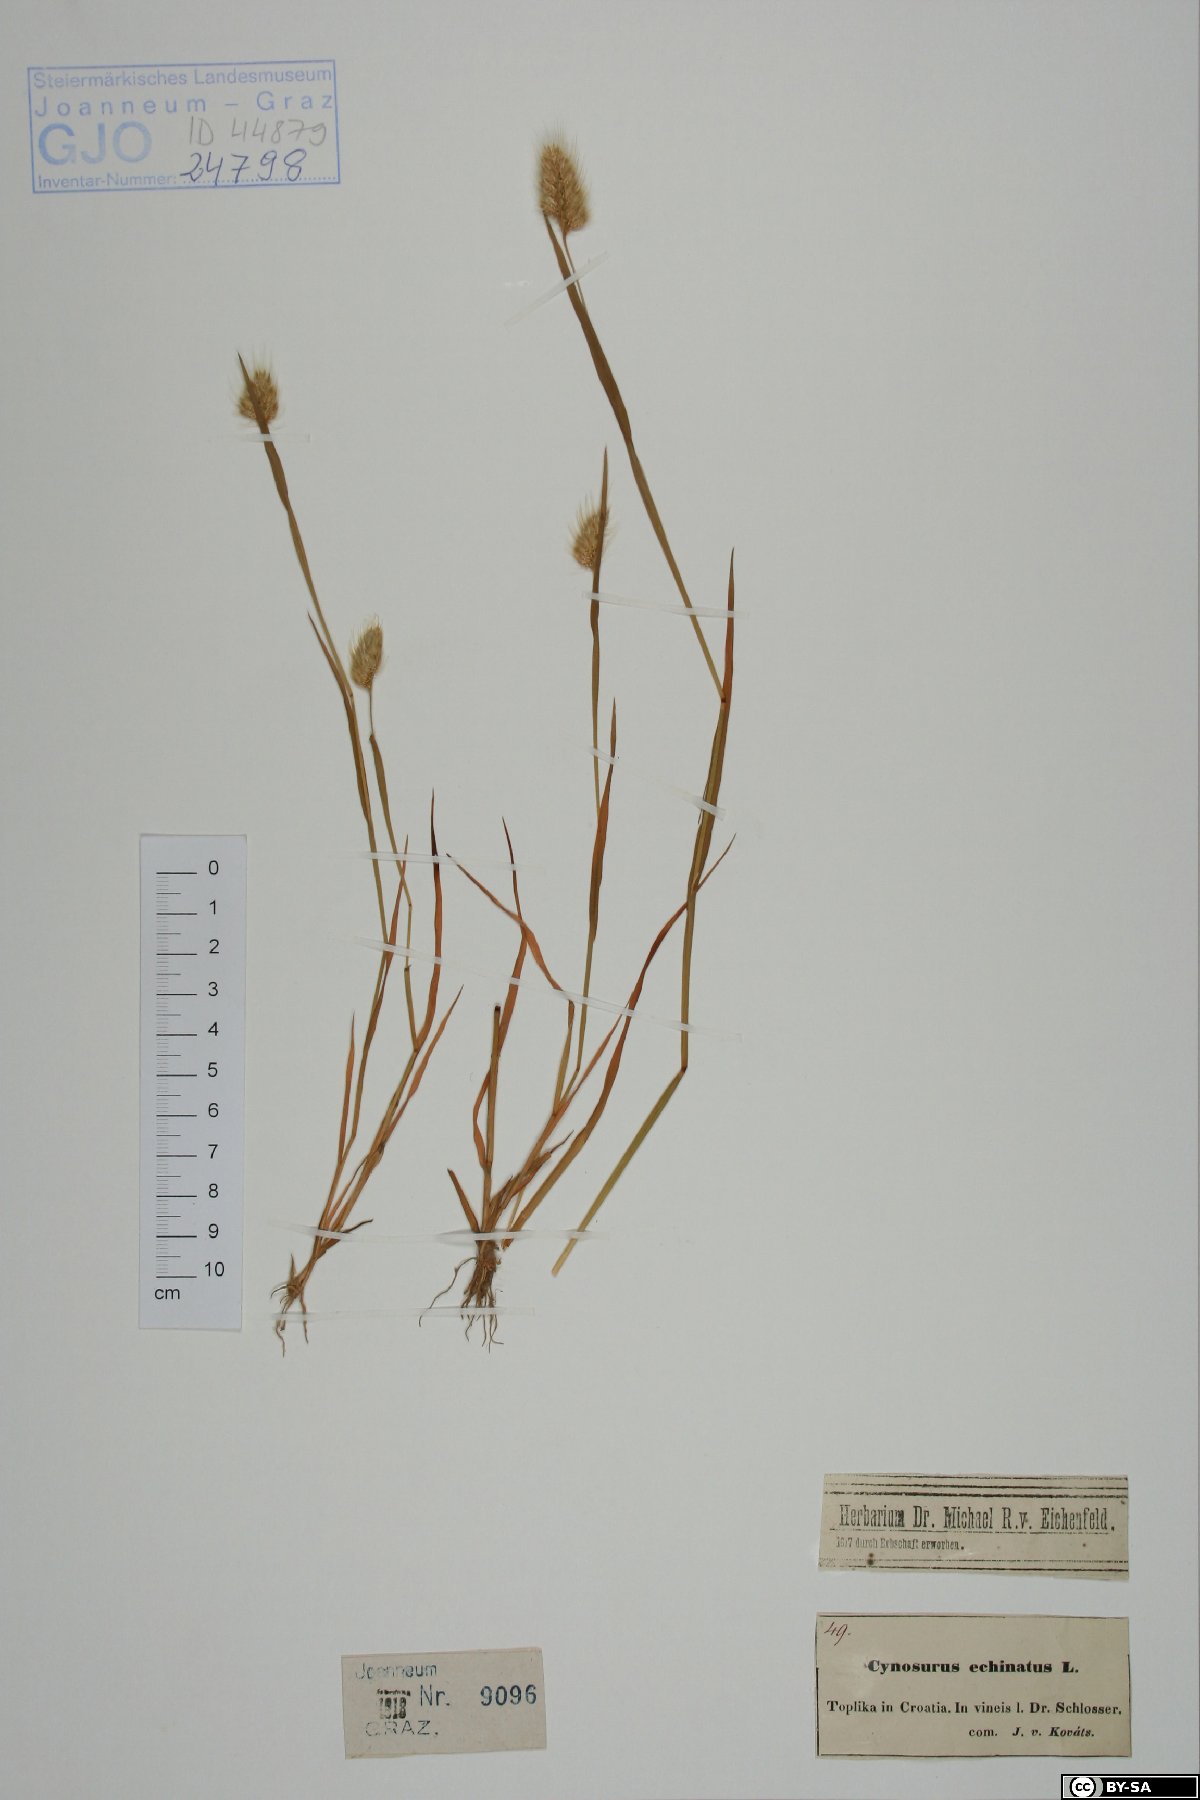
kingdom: Plantae
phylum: Tracheophyta
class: Liliopsida
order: Poales
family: Poaceae
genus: Cynosurus
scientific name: Cynosurus echinatus
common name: Rough dog's-tail
